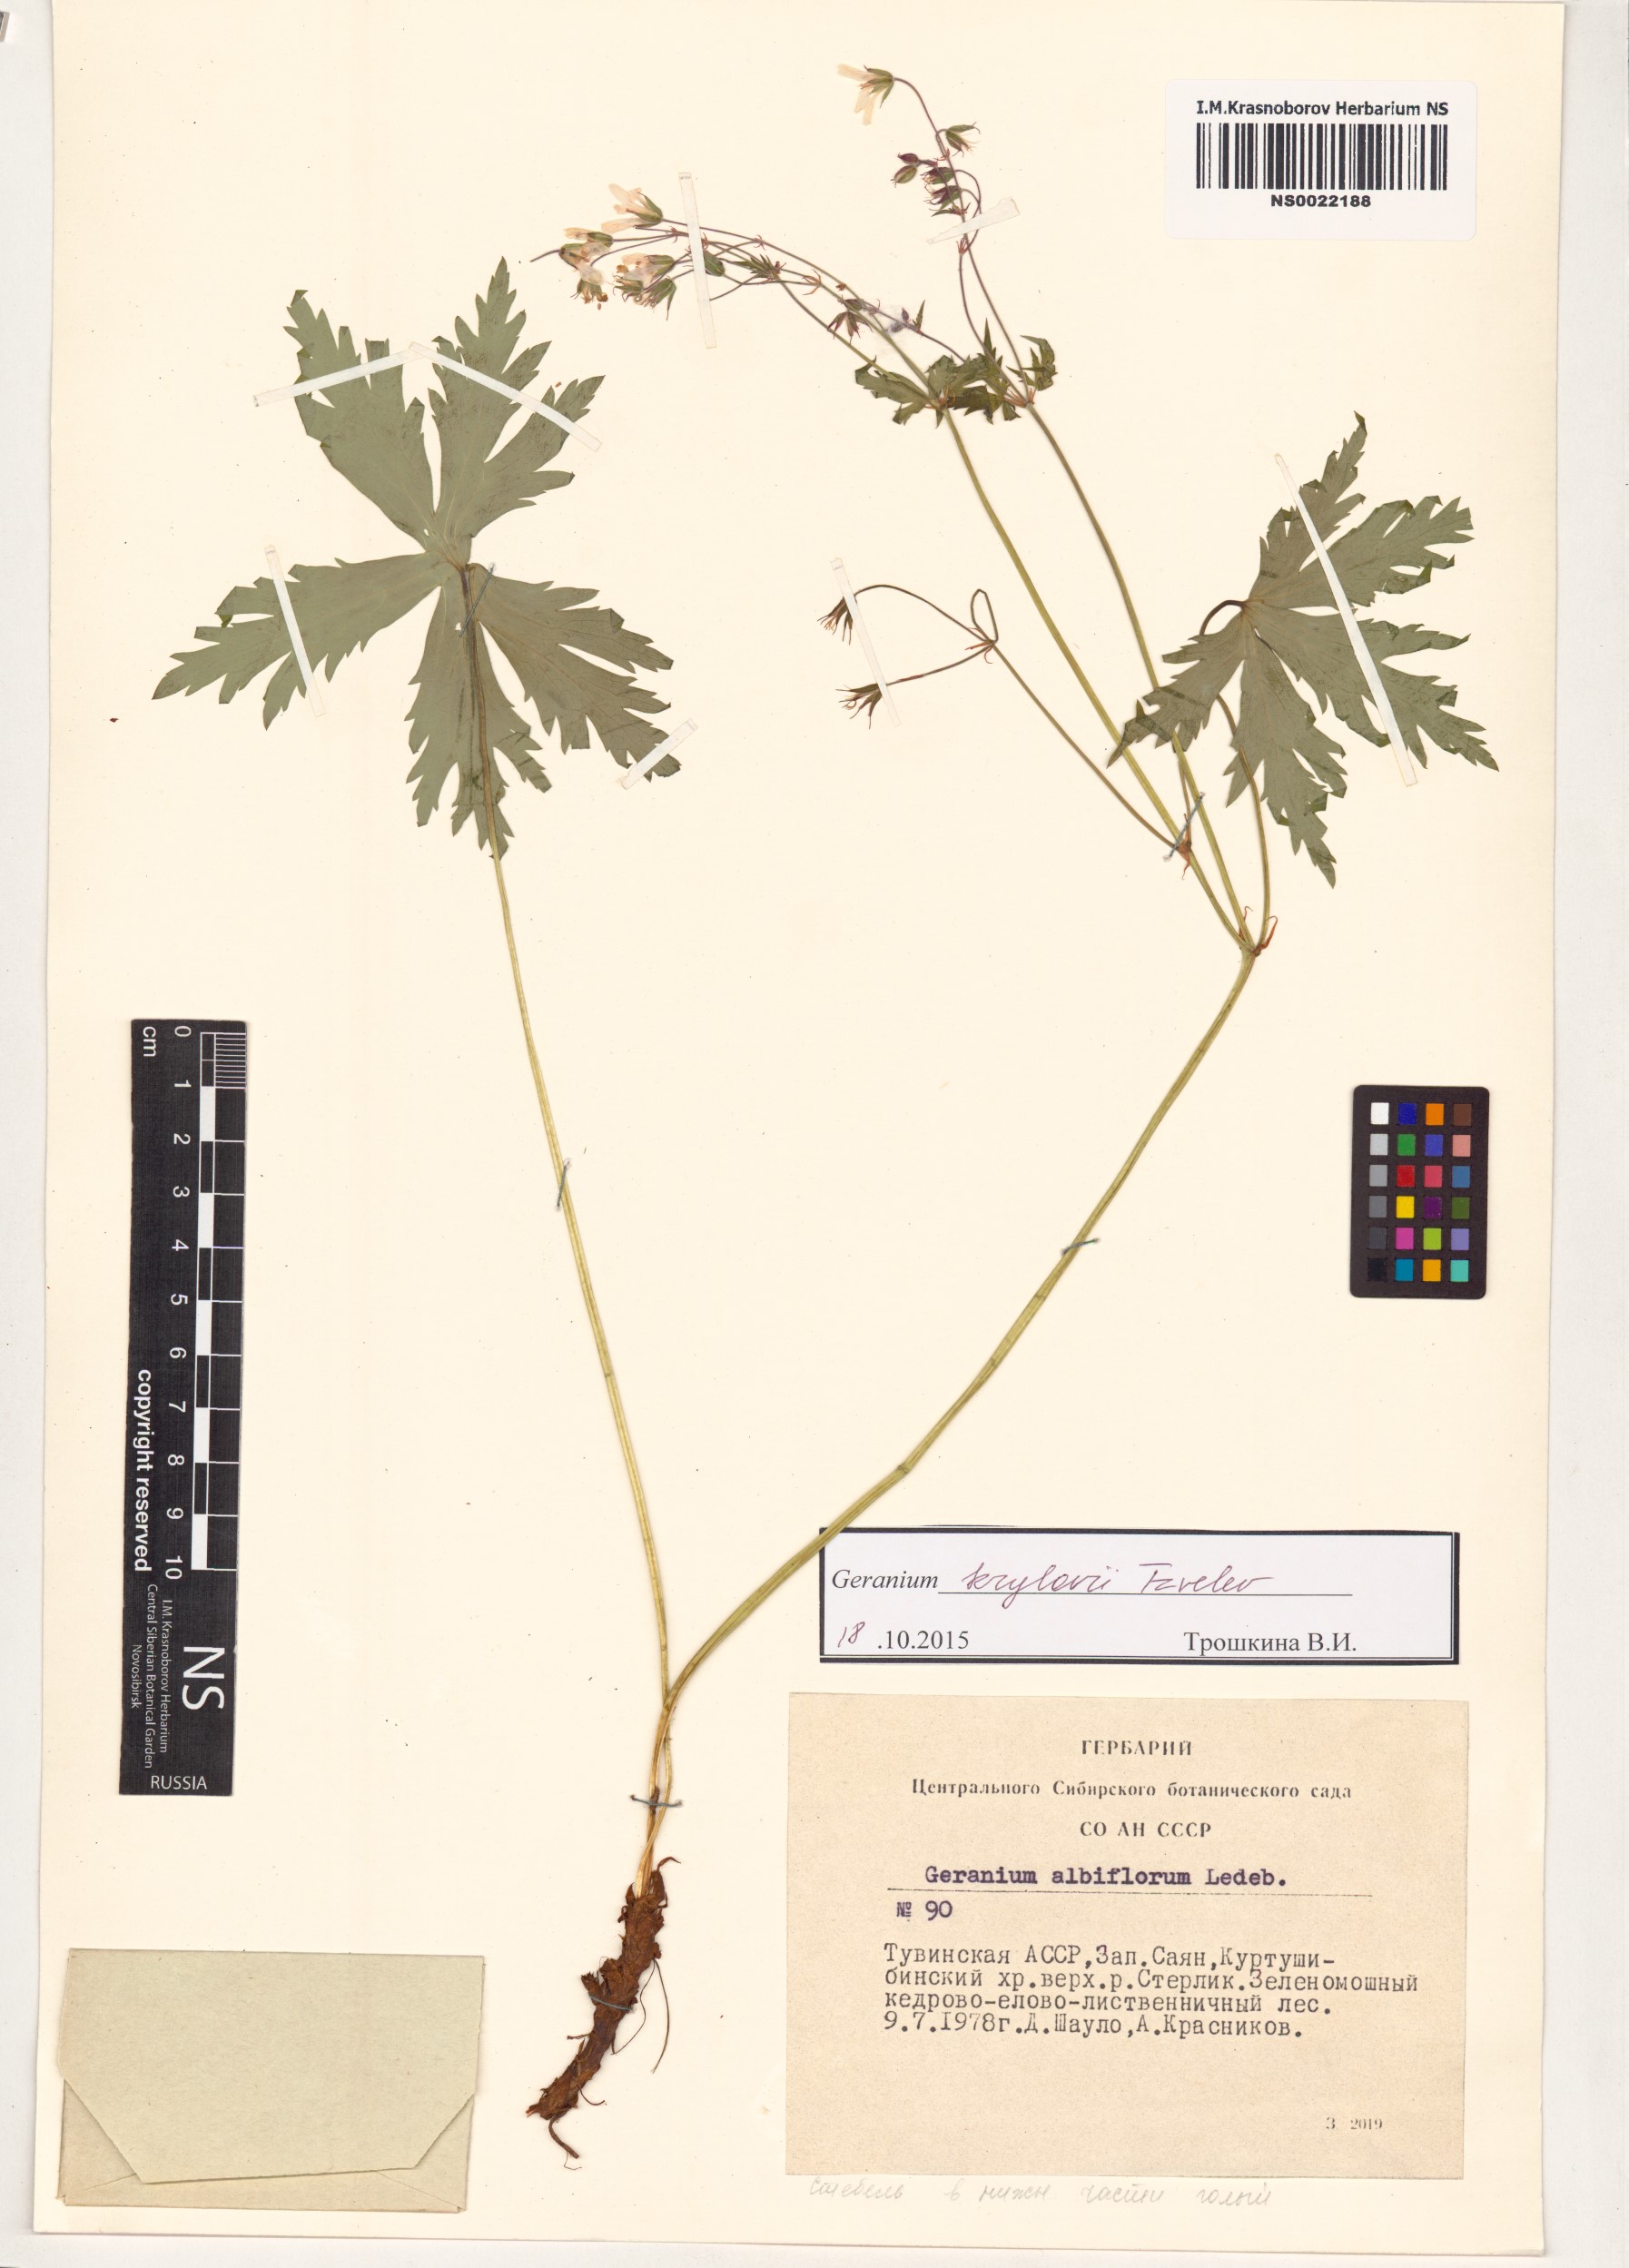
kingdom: Plantae
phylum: Tracheophyta
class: Magnoliopsida
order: Geraniales
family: Geraniaceae
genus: Geranium
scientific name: Geranium sylvaticum
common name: Wood crane's-bill
